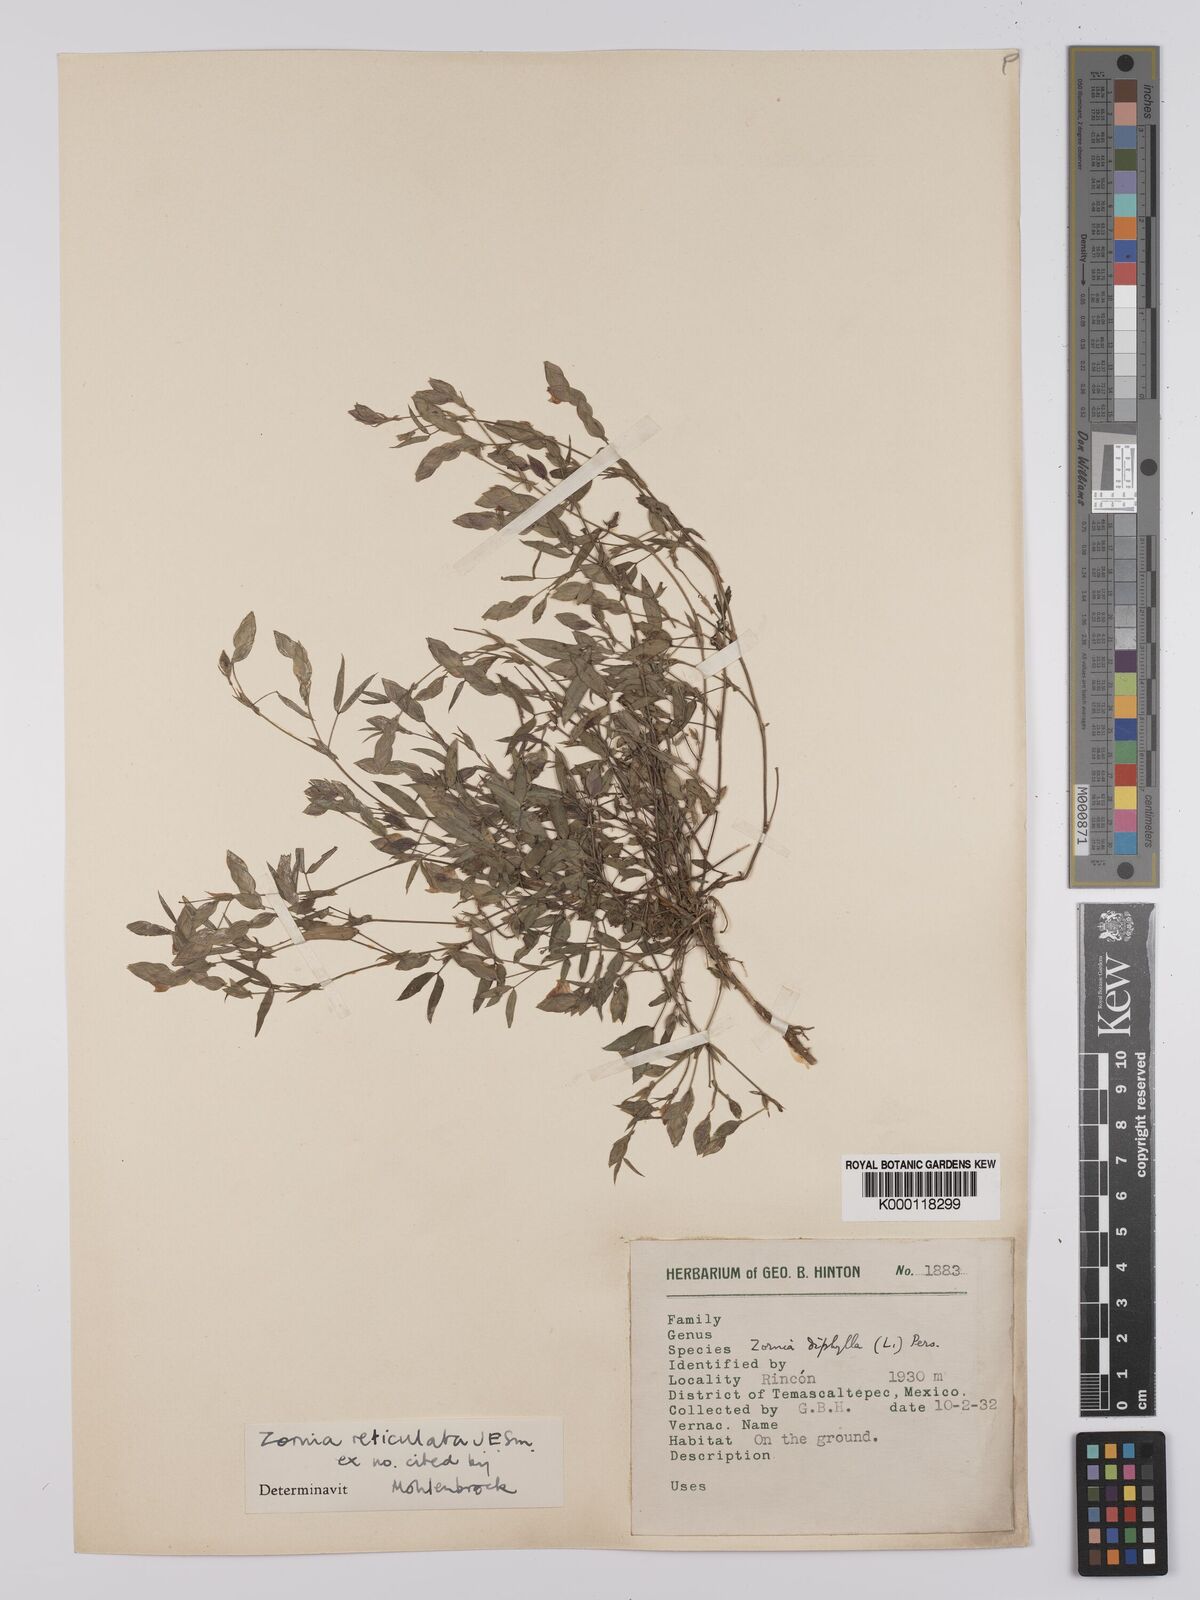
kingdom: Plantae
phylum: Tracheophyta
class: Magnoliopsida
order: Fabales
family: Fabaceae
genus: Zornia
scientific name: Zornia reticulata
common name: Reticulate viperina
